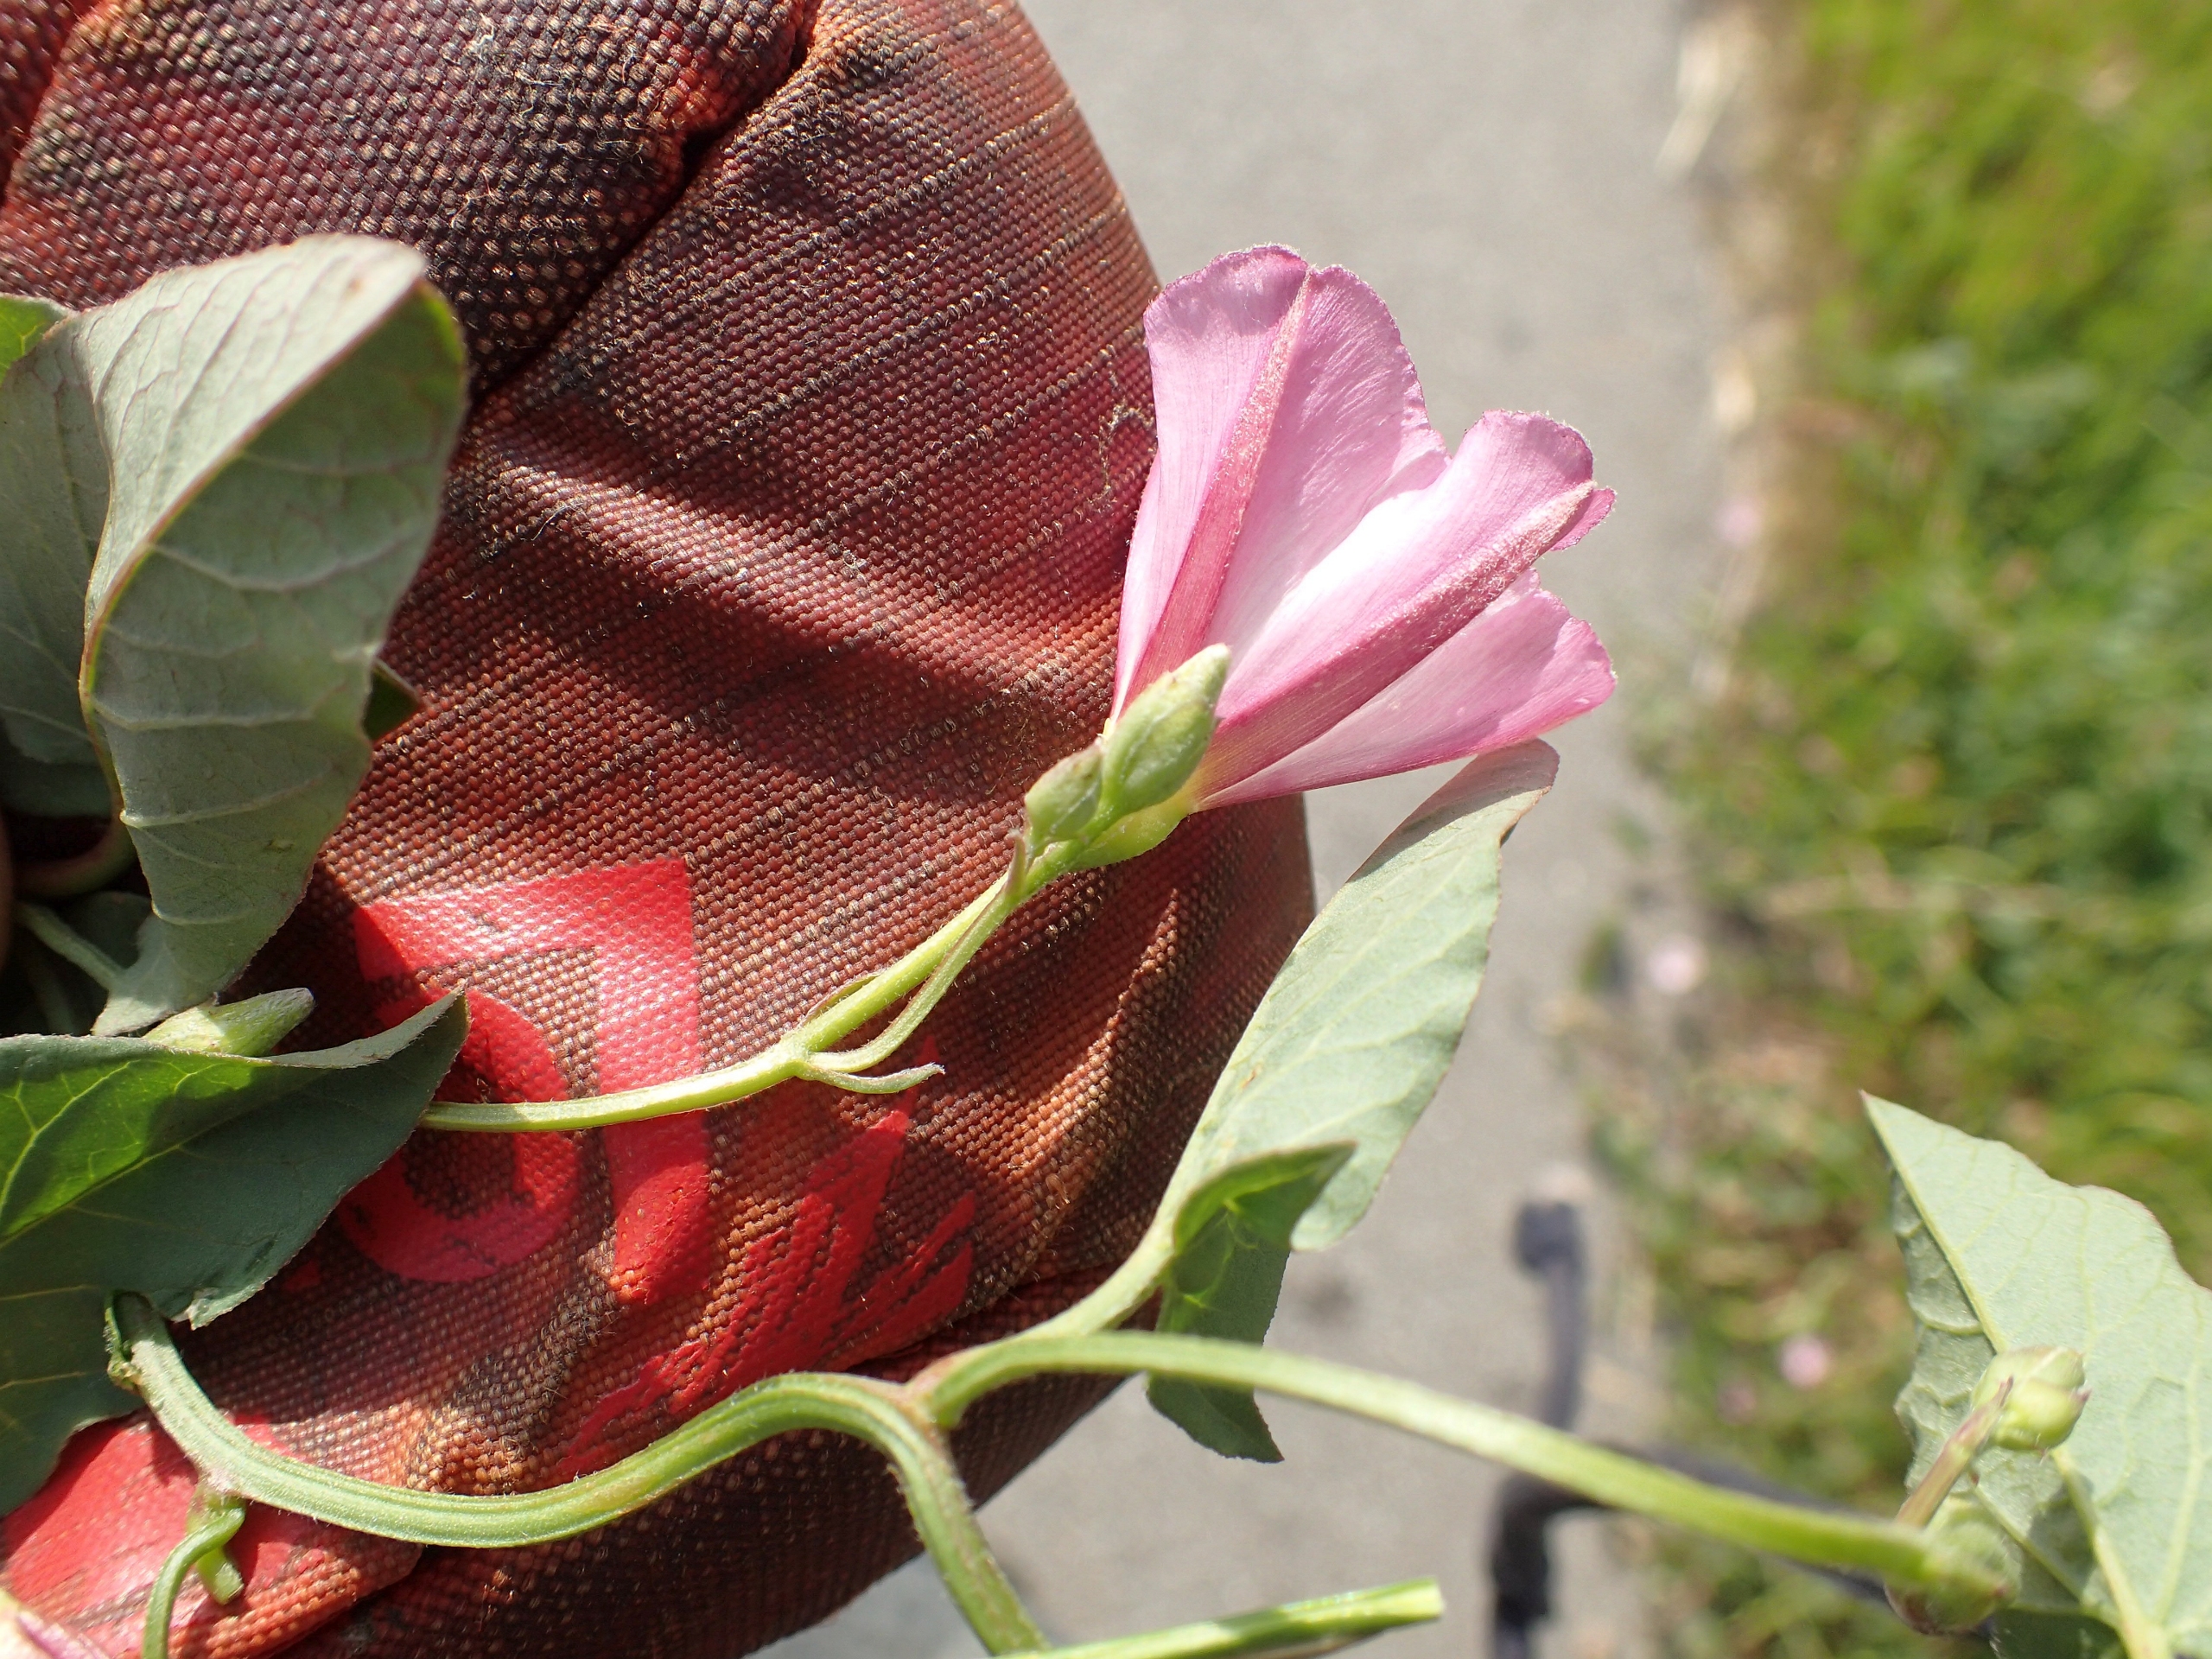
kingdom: Plantae
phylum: Tracheophyta
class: Magnoliopsida
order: Solanales
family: Convolvulaceae
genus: Convolvulus
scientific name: Convolvulus arvensis
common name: Ager-snerle
